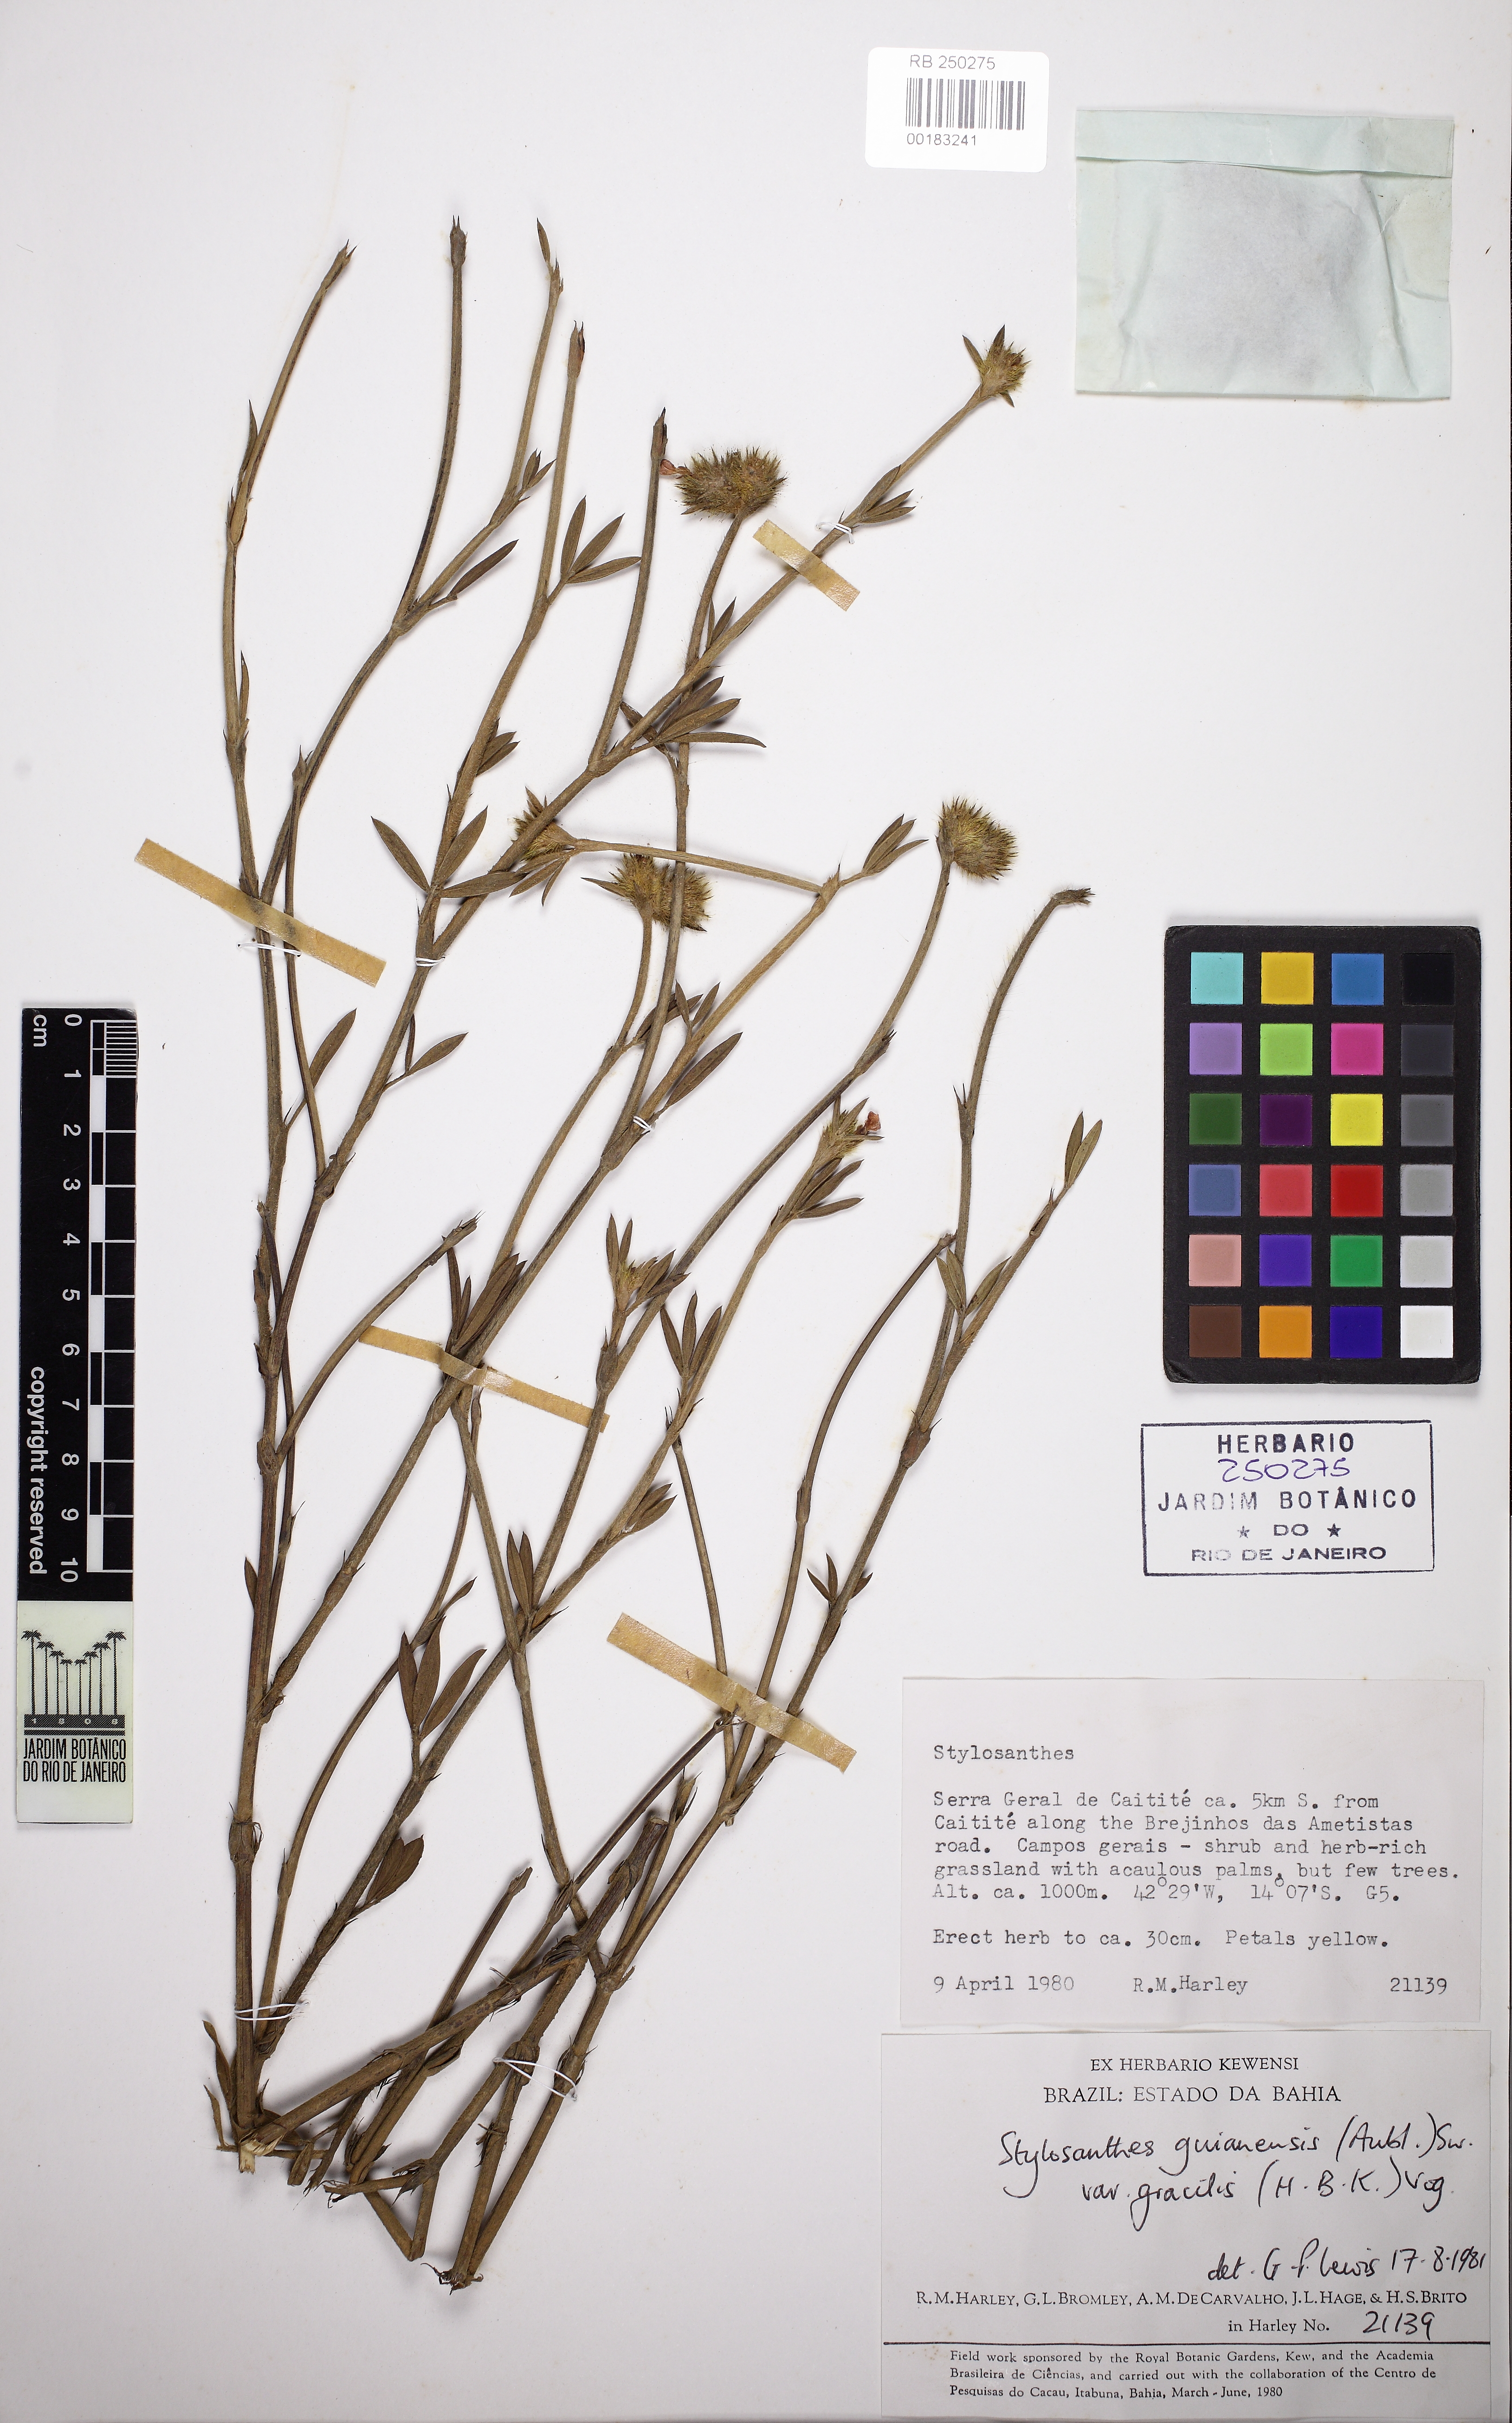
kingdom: Plantae
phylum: Tracheophyta
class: Magnoliopsida
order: Fabales
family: Fabaceae
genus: Stylosanthes
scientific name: Stylosanthes guianensis
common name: Pencil flower
